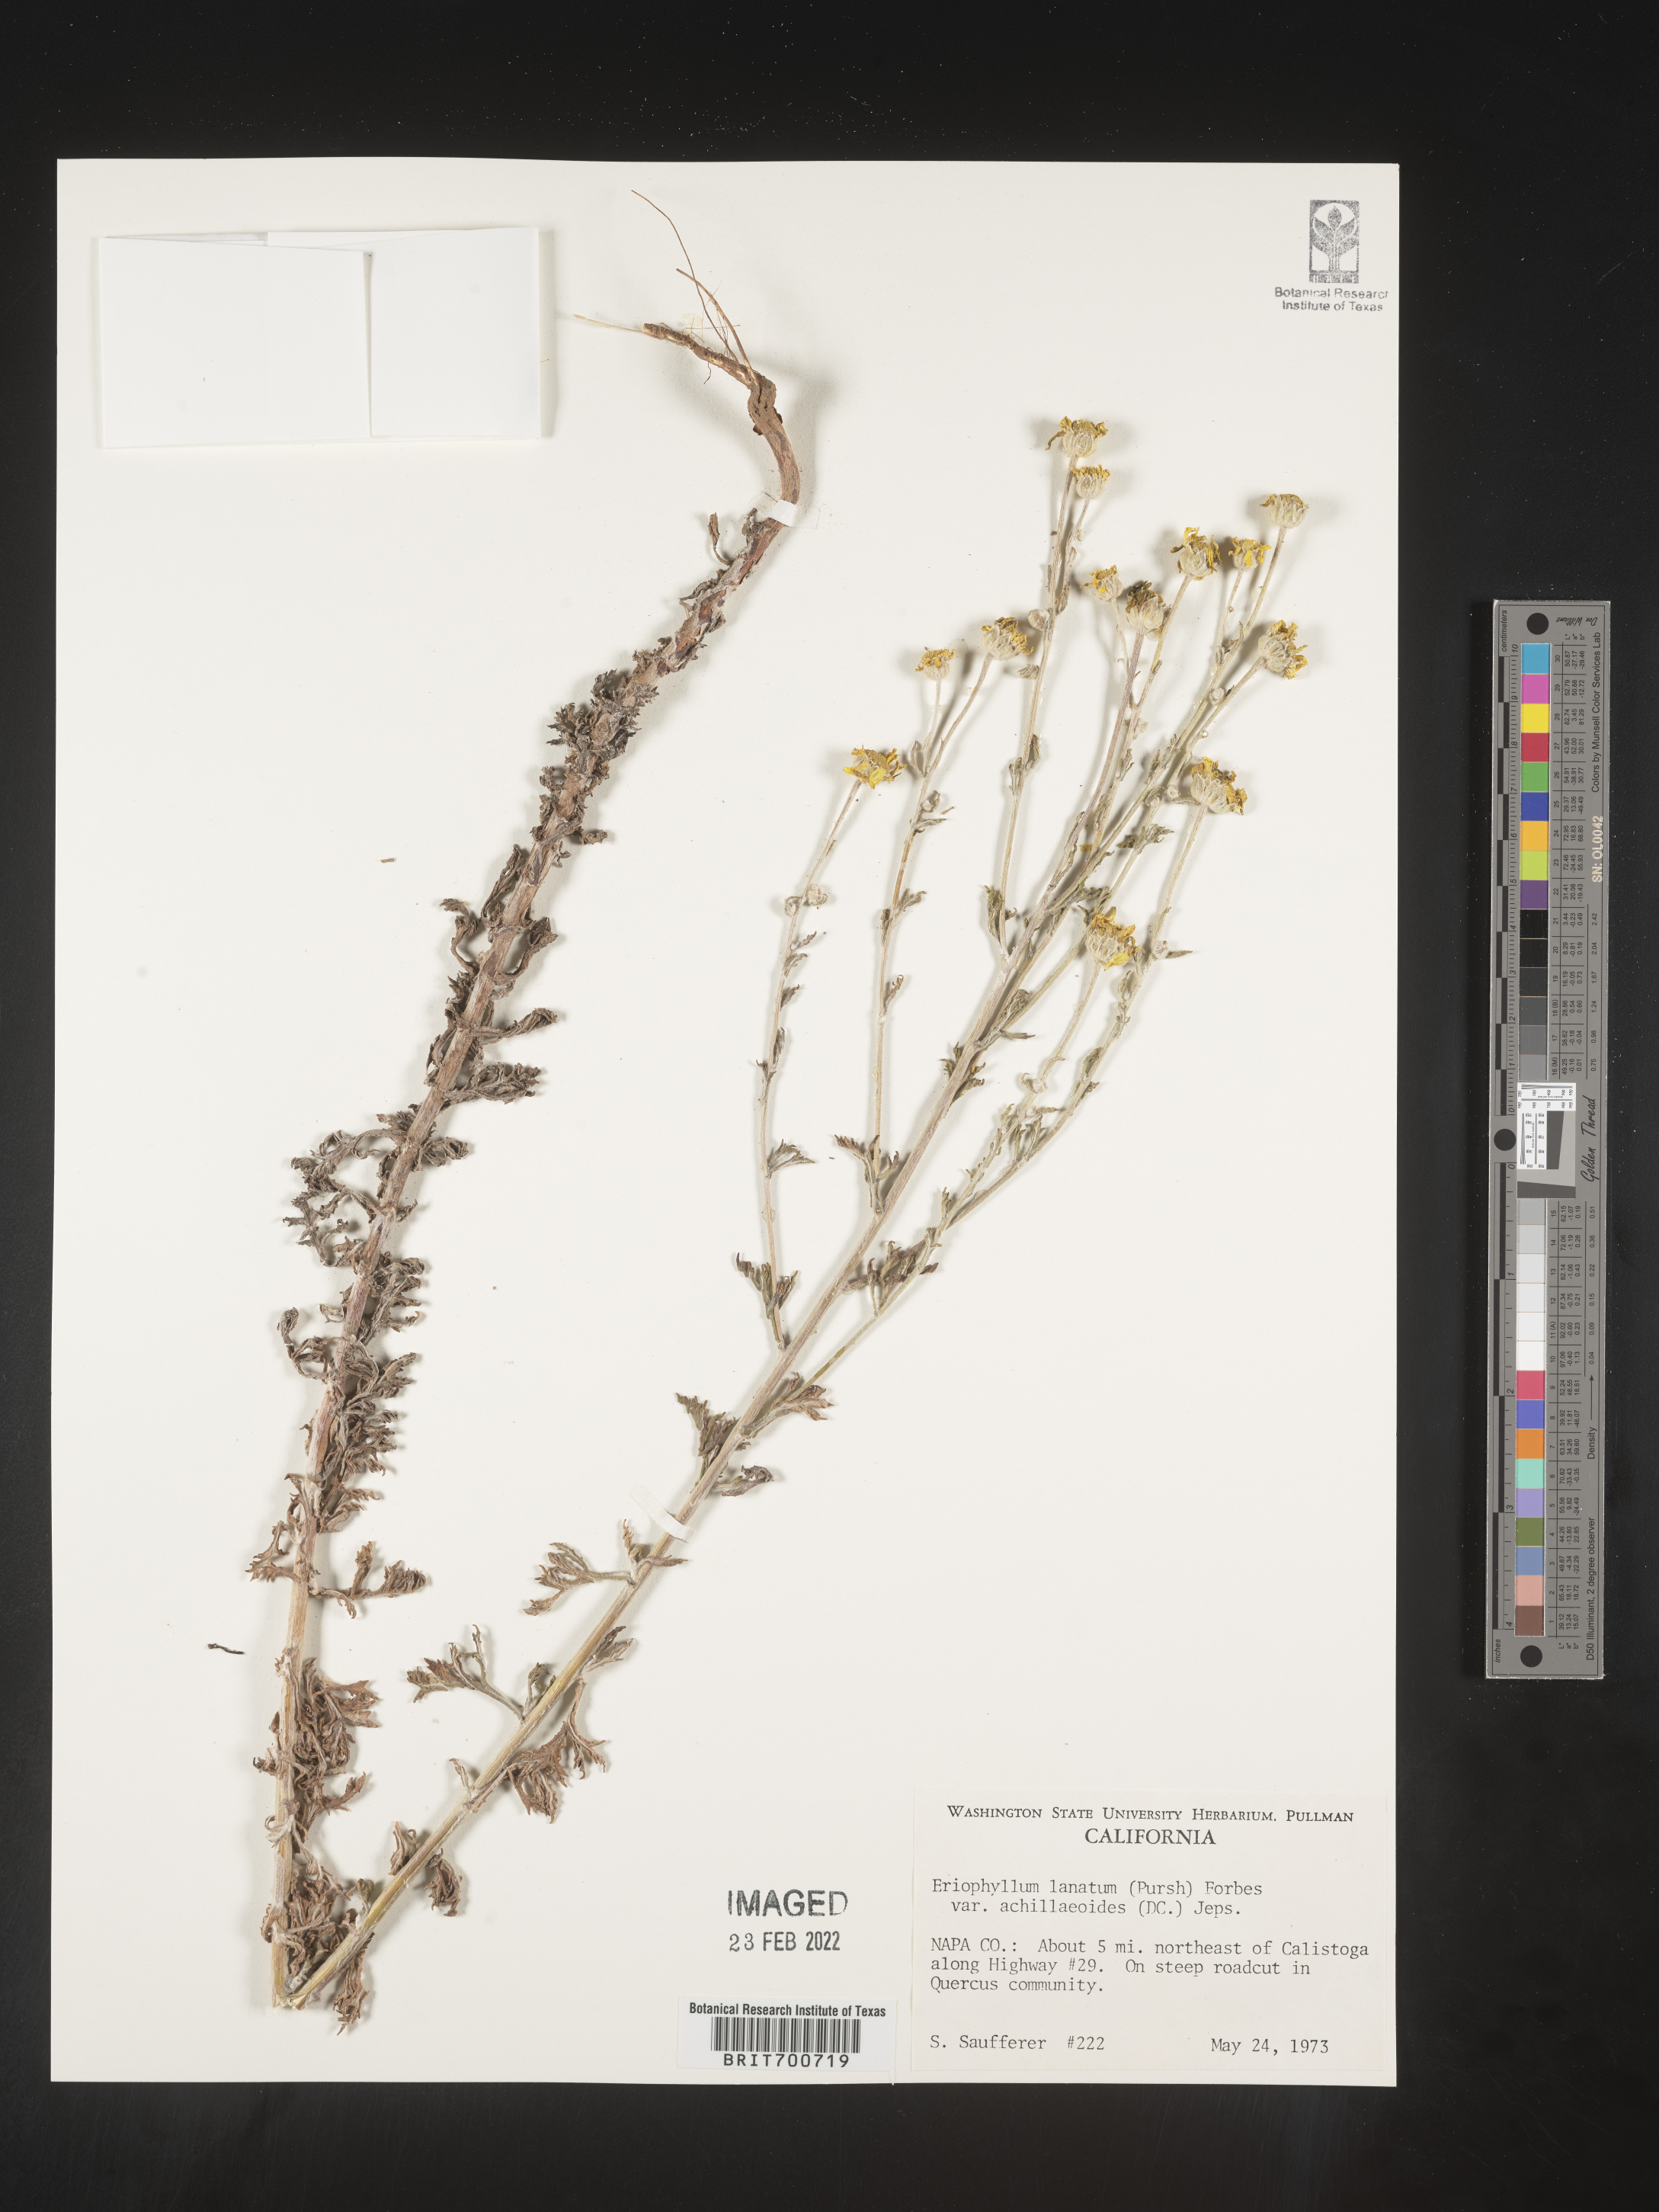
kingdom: Plantae
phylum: Tracheophyta
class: Magnoliopsida
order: Asterales
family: Asteraceae
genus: Eriophyllum
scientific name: Eriophyllum lanatum
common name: Common woolly-sunflower
